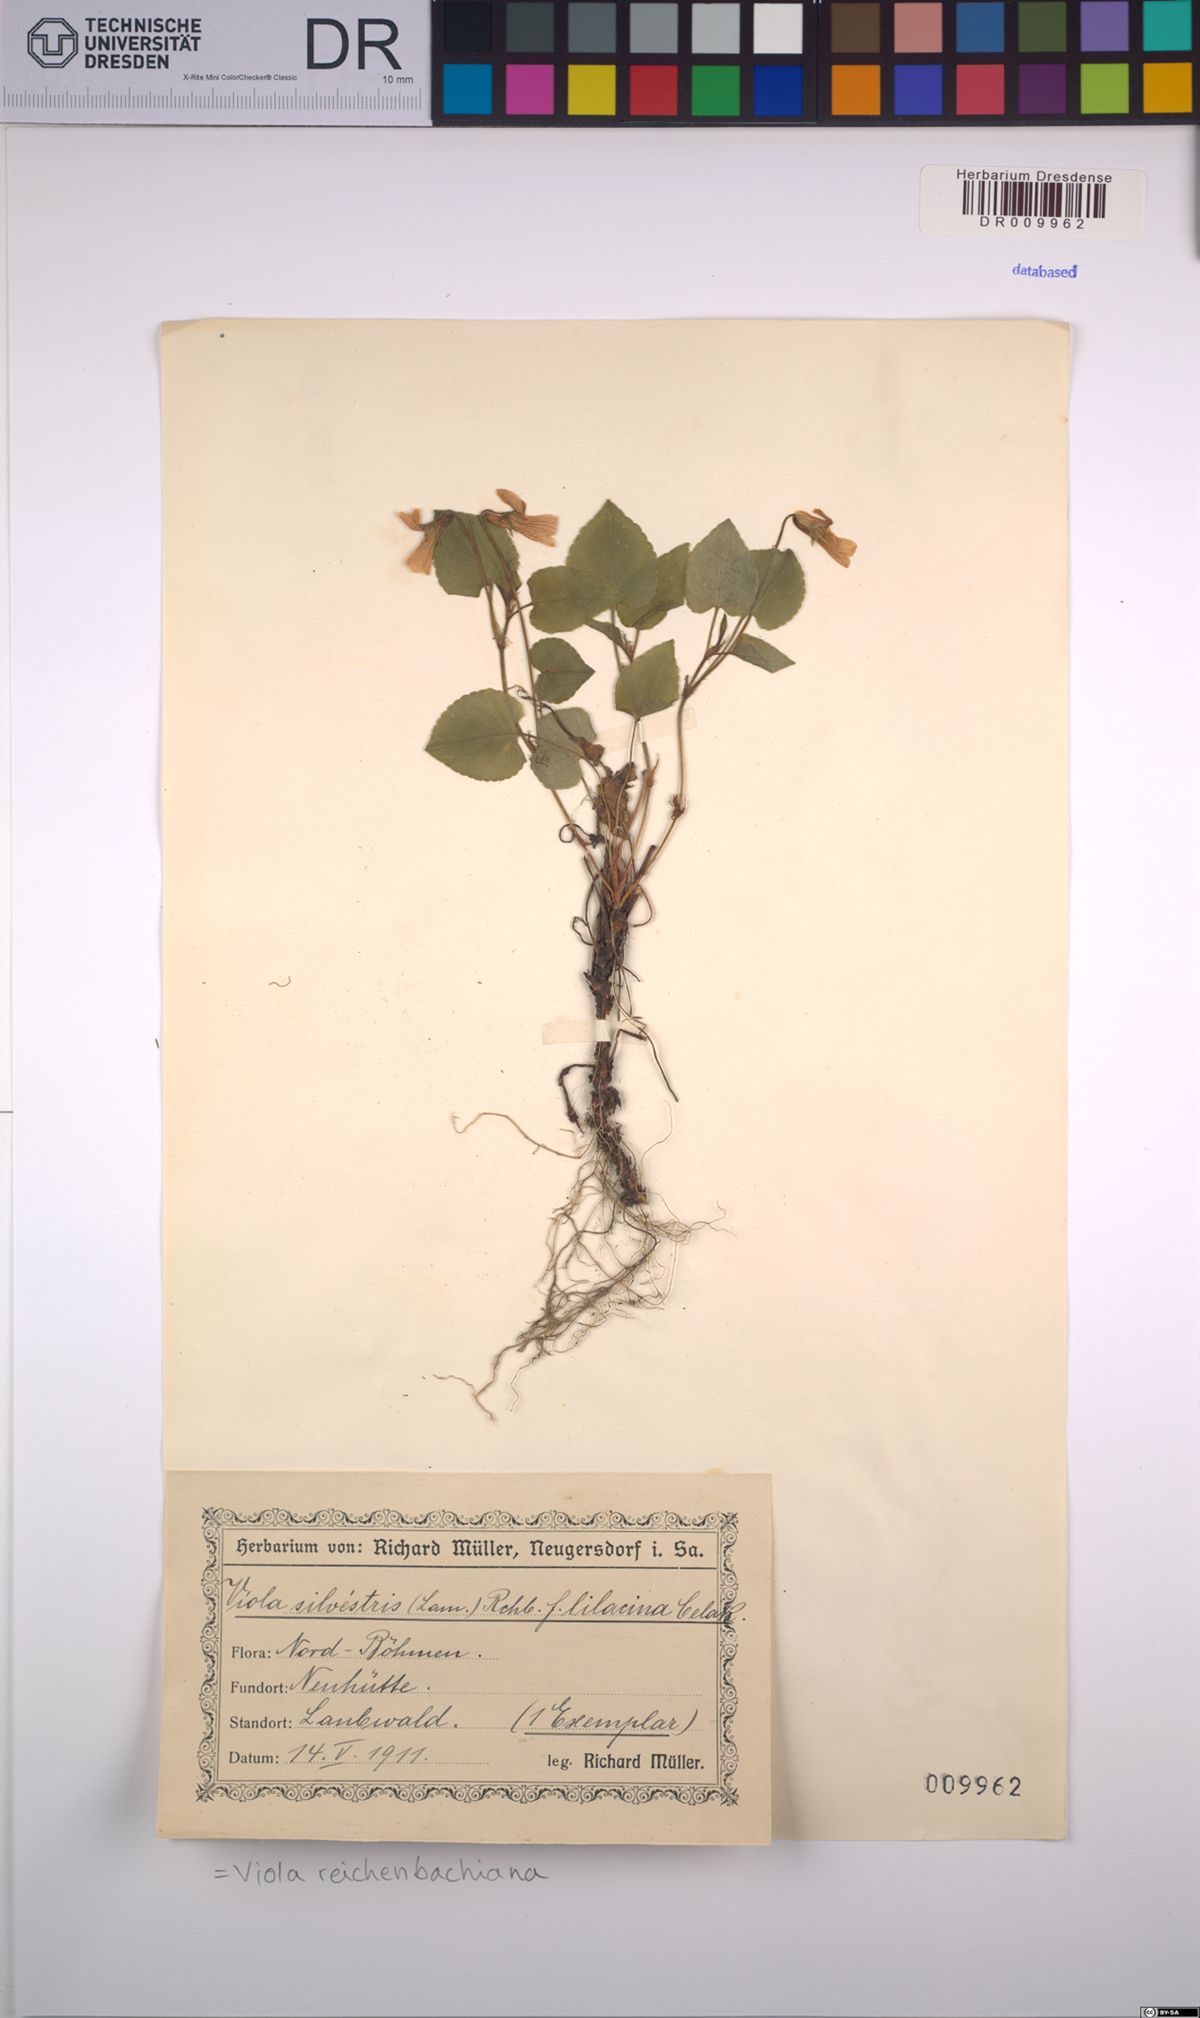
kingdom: Plantae
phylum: Tracheophyta
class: Magnoliopsida
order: Malpighiales
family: Violaceae
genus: Viola
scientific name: Viola reichenbachiana
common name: Early dog-violet
